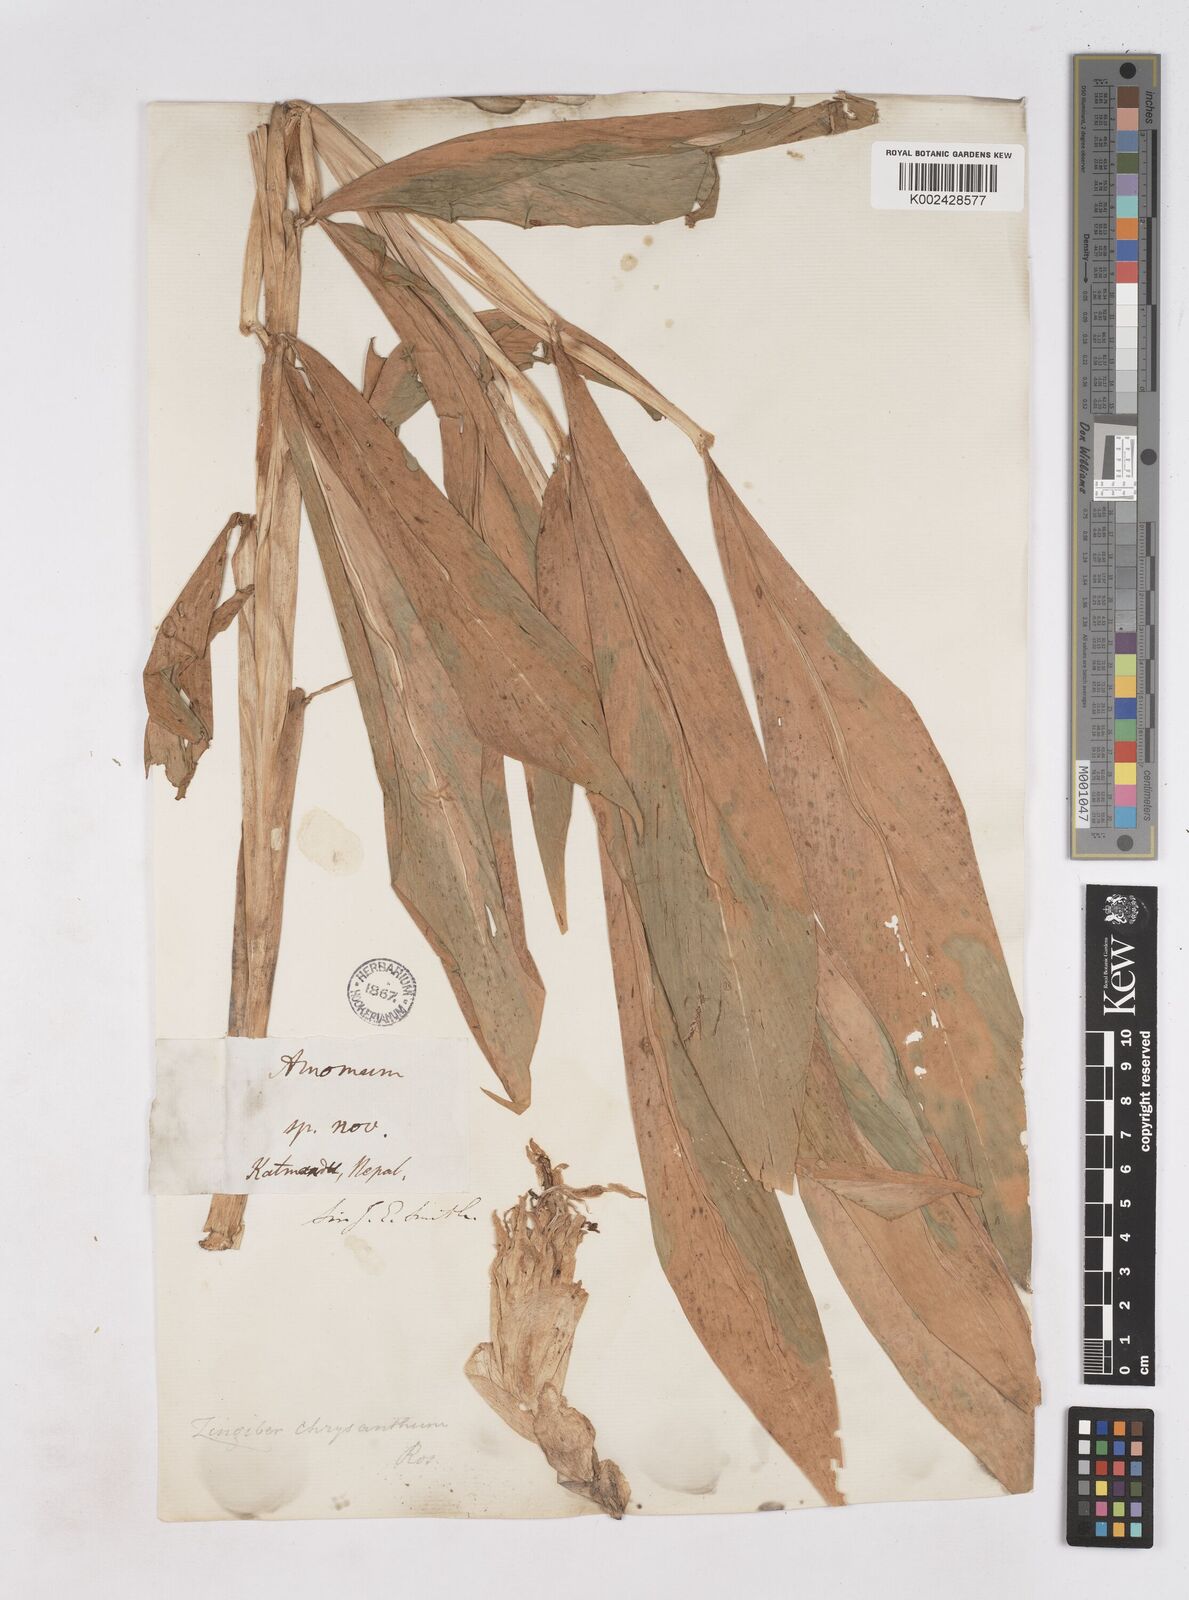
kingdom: Plantae
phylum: Tracheophyta
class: Liliopsida
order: Zingiberales
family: Zingiberaceae
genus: Zingiber
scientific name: Zingiber chrysanthum
